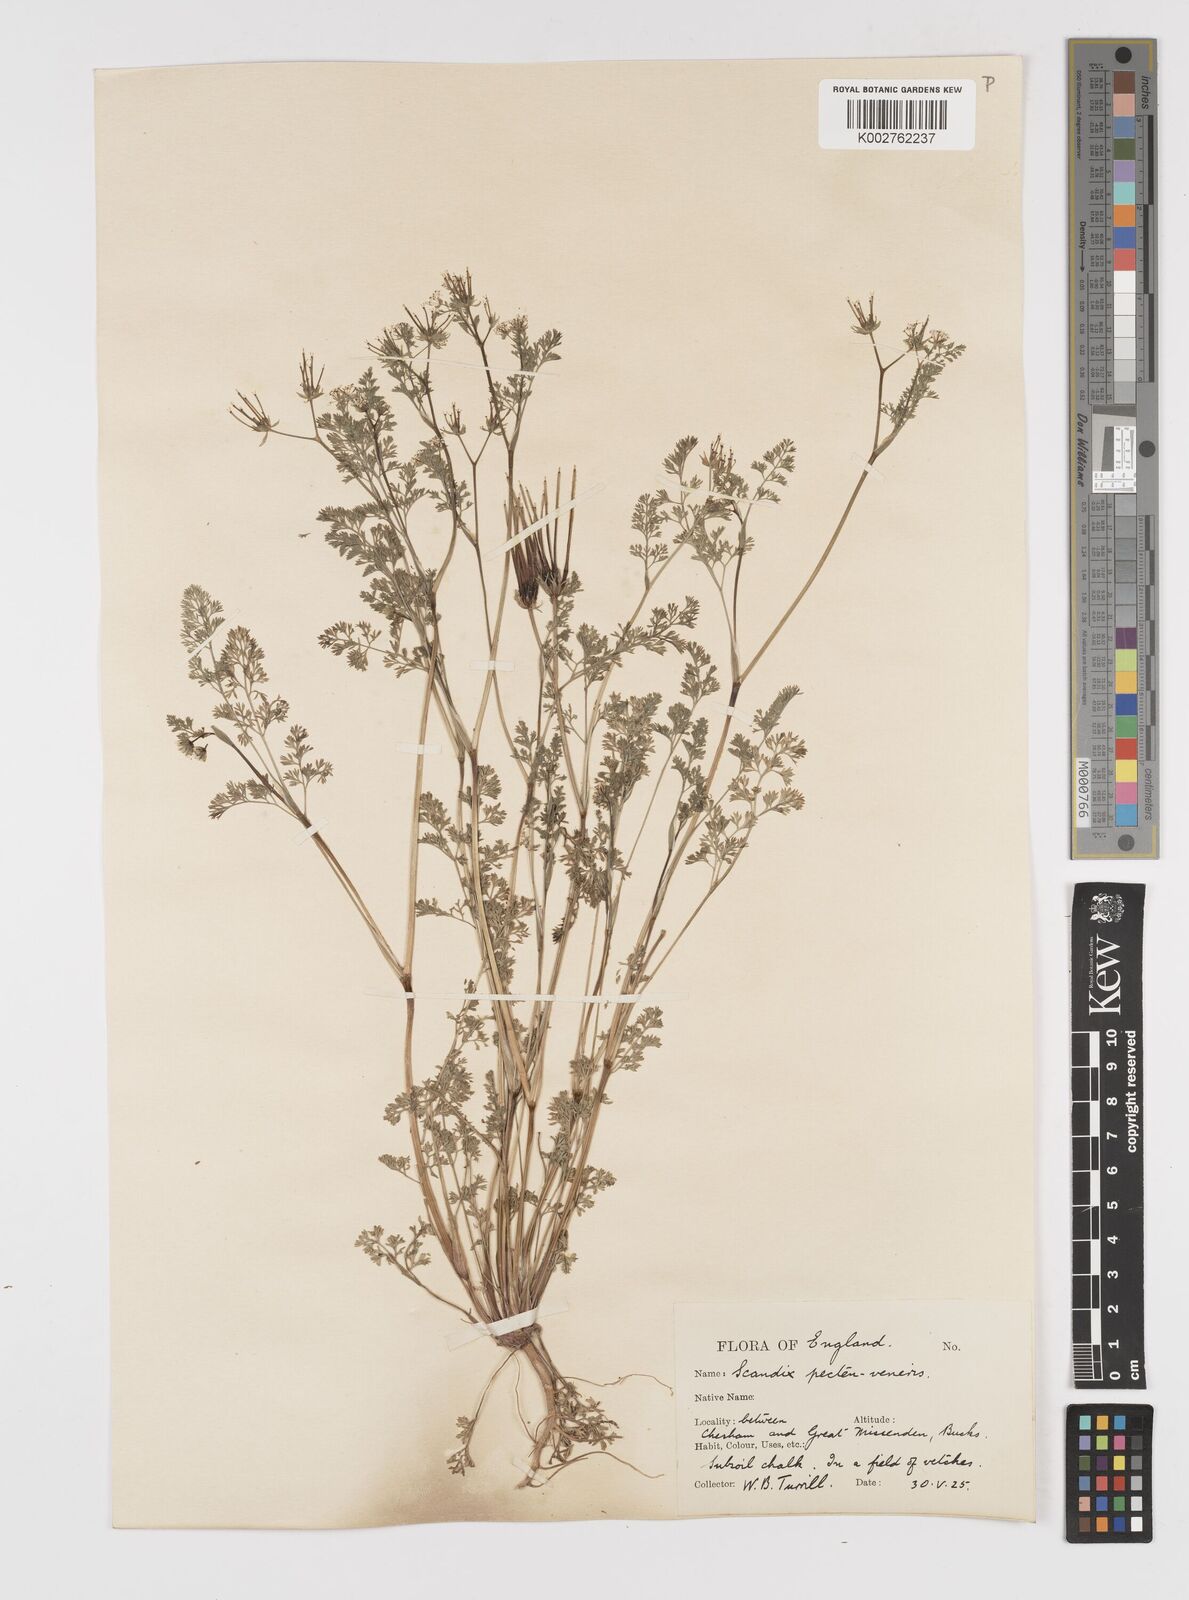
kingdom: Plantae
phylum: Tracheophyta
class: Magnoliopsida
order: Apiales
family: Apiaceae
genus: Scandix
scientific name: Scandix pecten-veneris
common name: Shepherd's-needle
